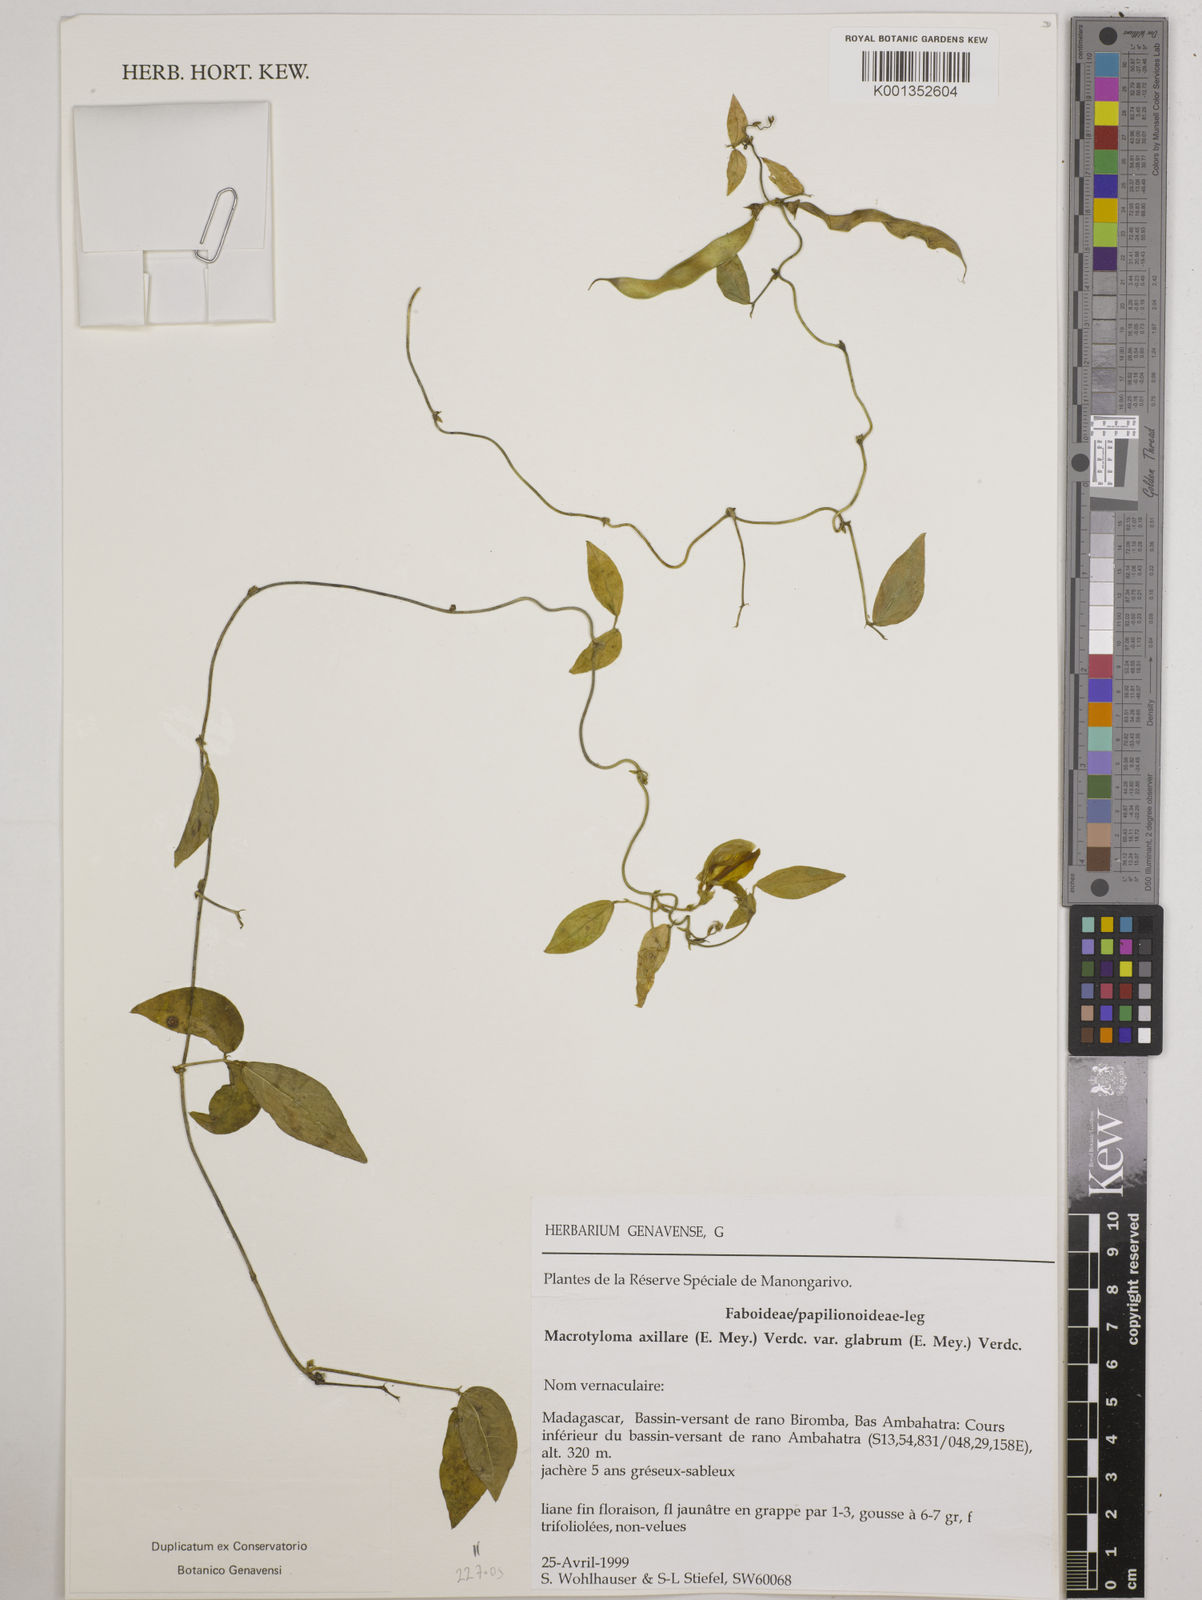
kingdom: Plantae
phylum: Tracheophyta
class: Magnoliopsida
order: Fabales
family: Fabaceae
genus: Macrotyloma
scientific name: Macrotyloma
